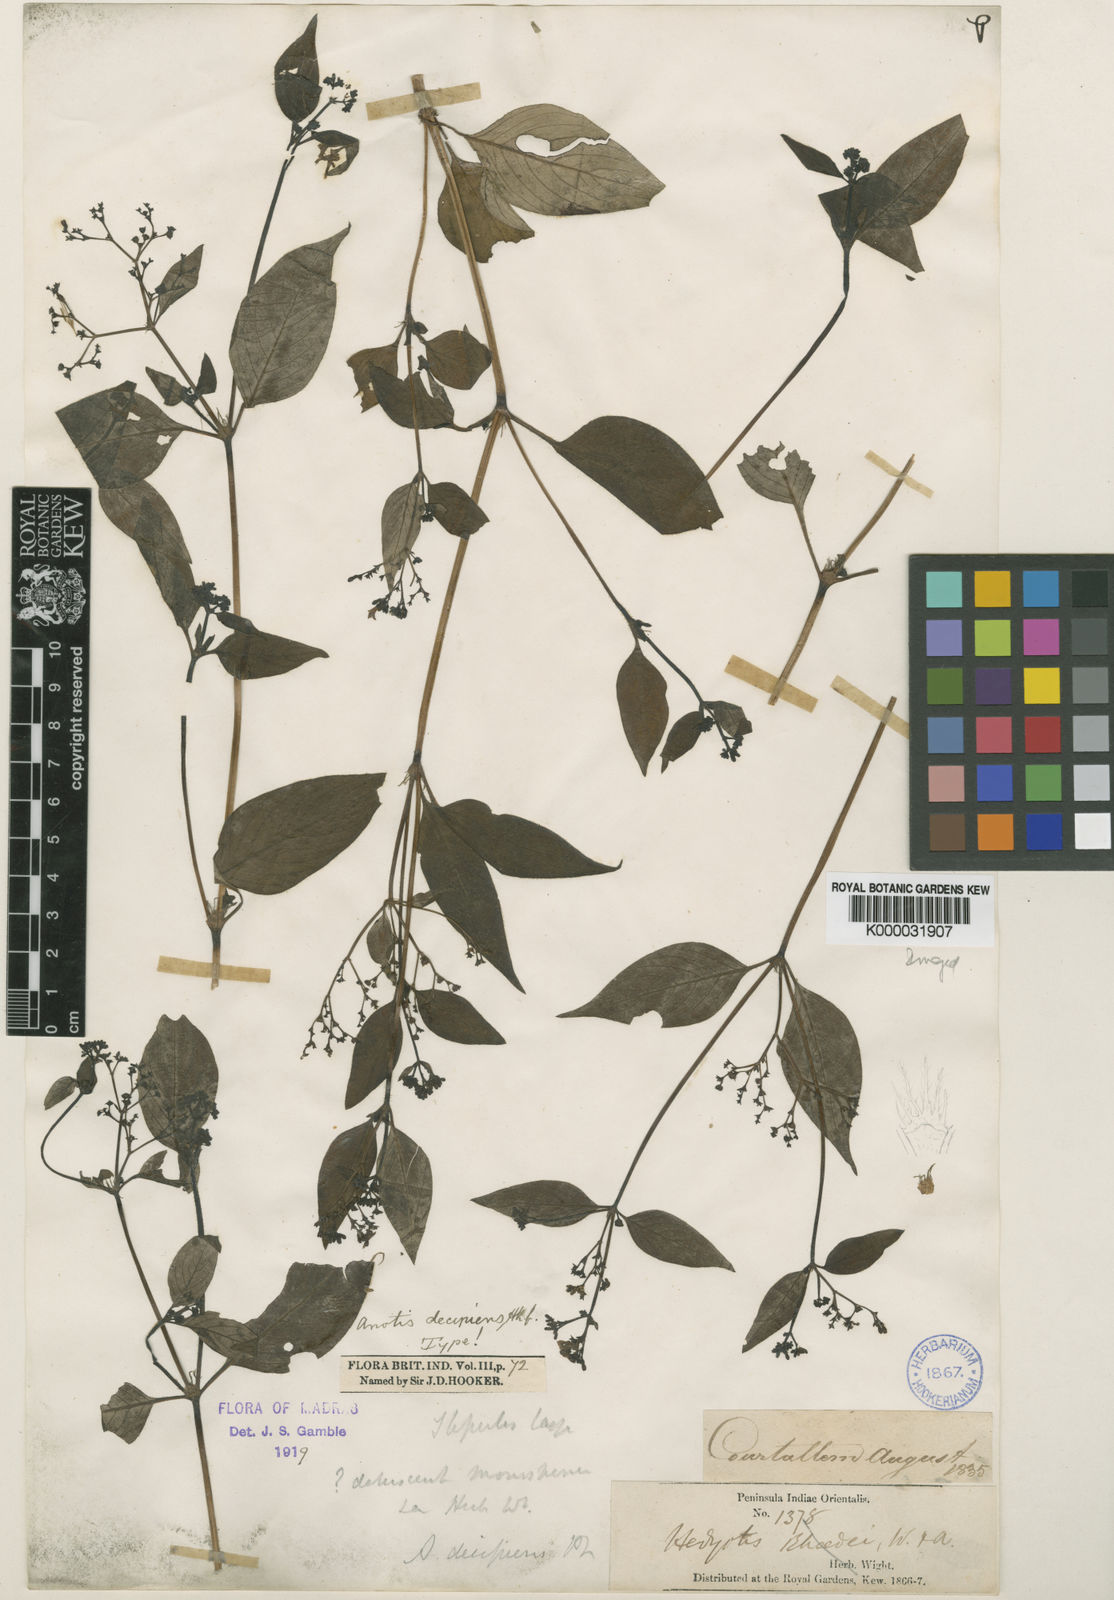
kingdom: Plantae
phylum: Tracheophyta
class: Magnoliopsida
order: Gentianales
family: Rubiaceae
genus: Neanotis
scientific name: Neanotis decipiens
